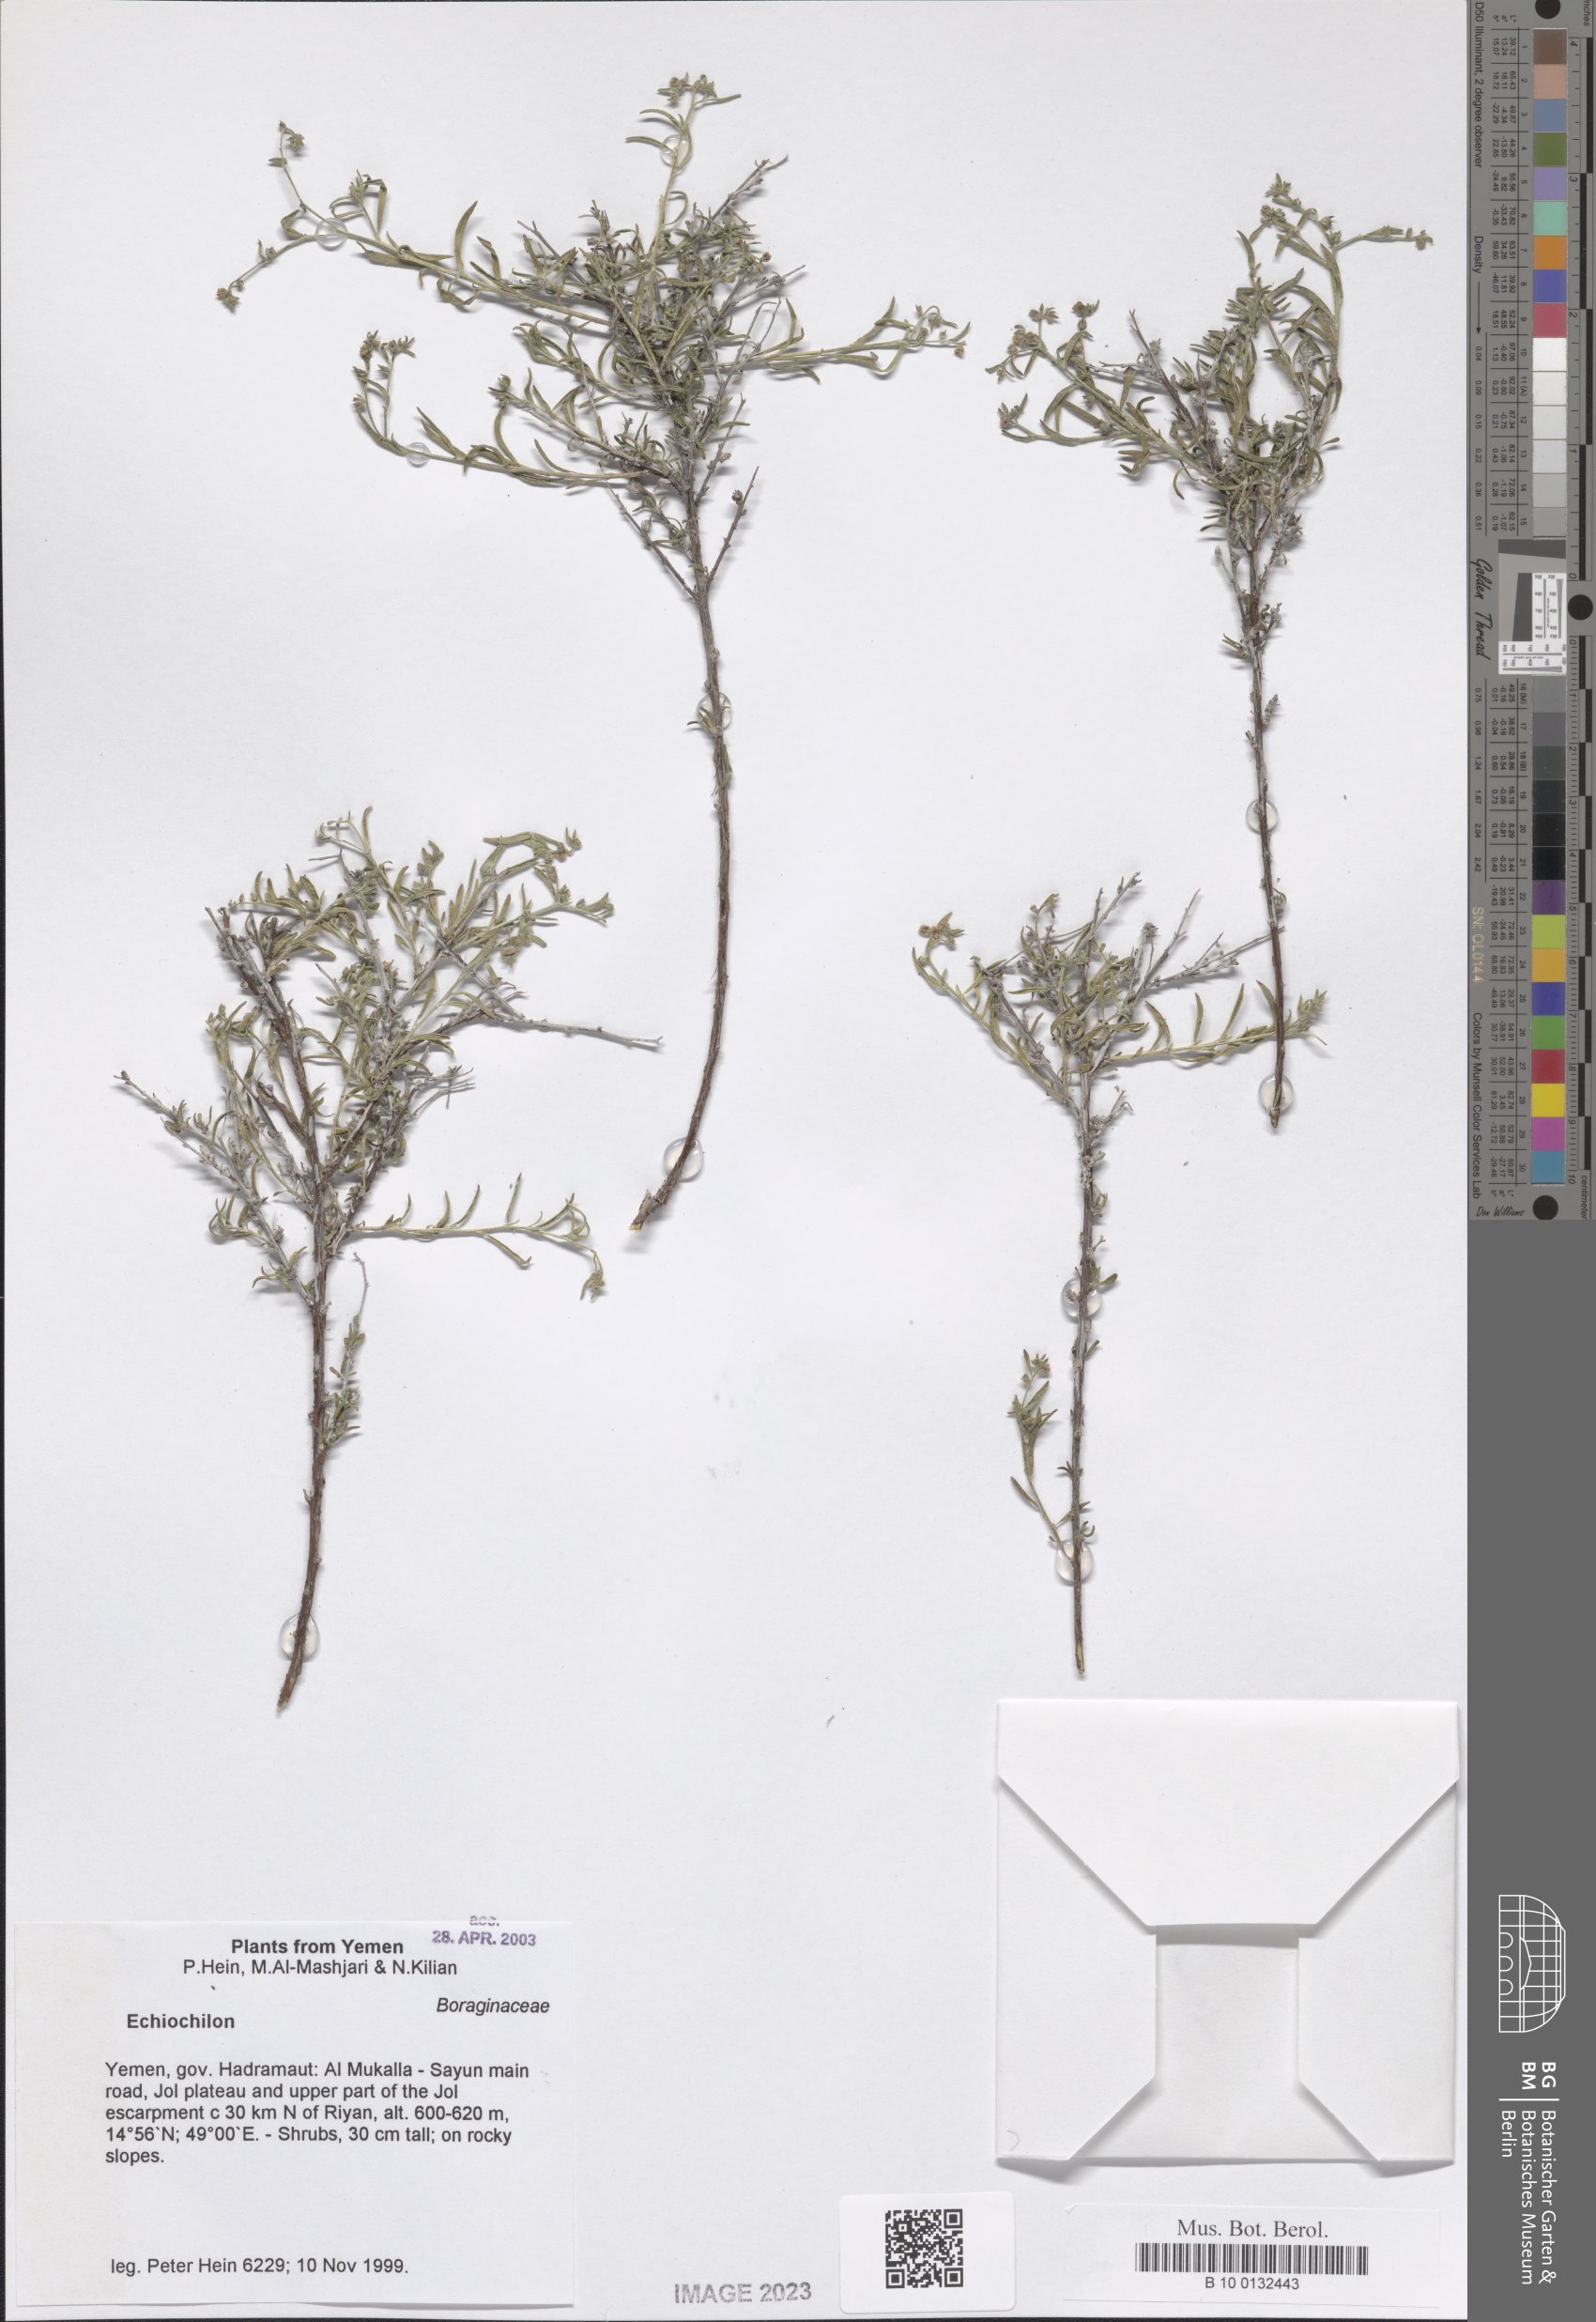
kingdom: Plantae
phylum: Tracheophyta
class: Magnoliopsida
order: Boraginales
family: Boraginaceae
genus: Echiochilon
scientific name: Echiochilon
